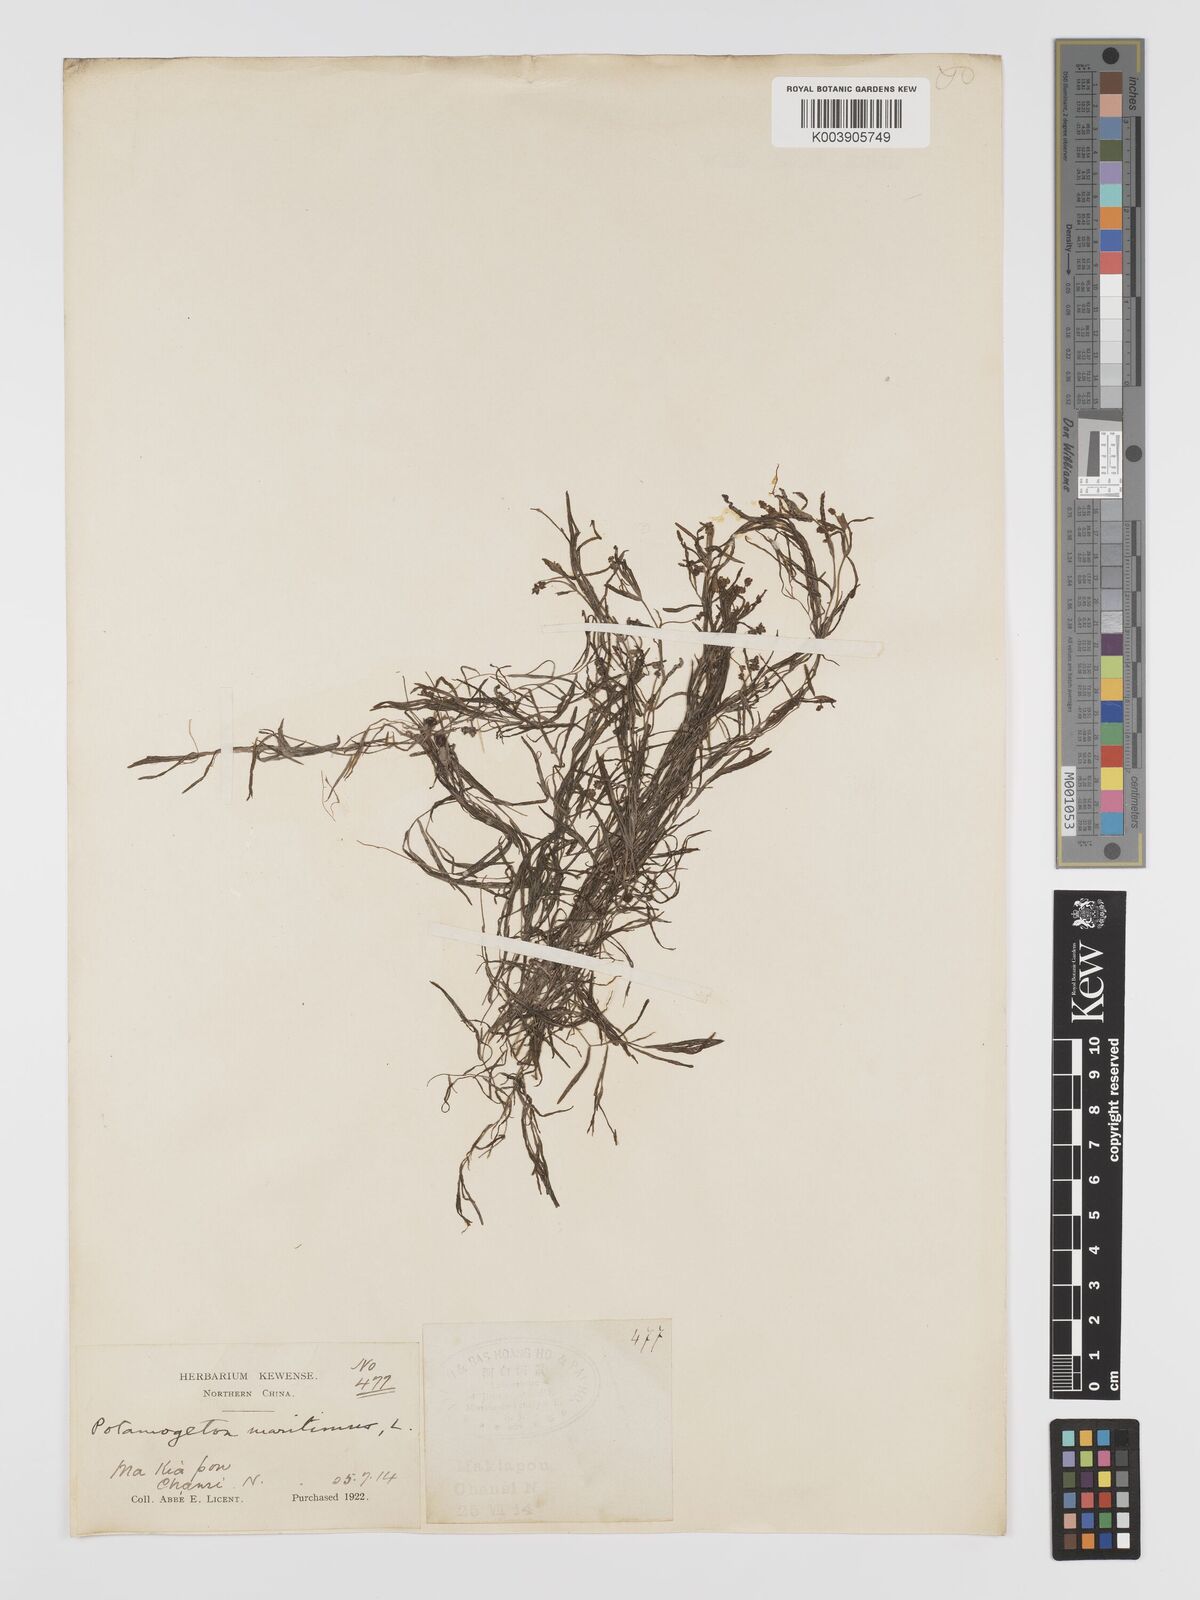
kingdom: Plantae
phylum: Tracheophyta
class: Liliopsida
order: Alismatales
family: Potamogetonaceae
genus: Potamogeton
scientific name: Potamogeton filiformis
